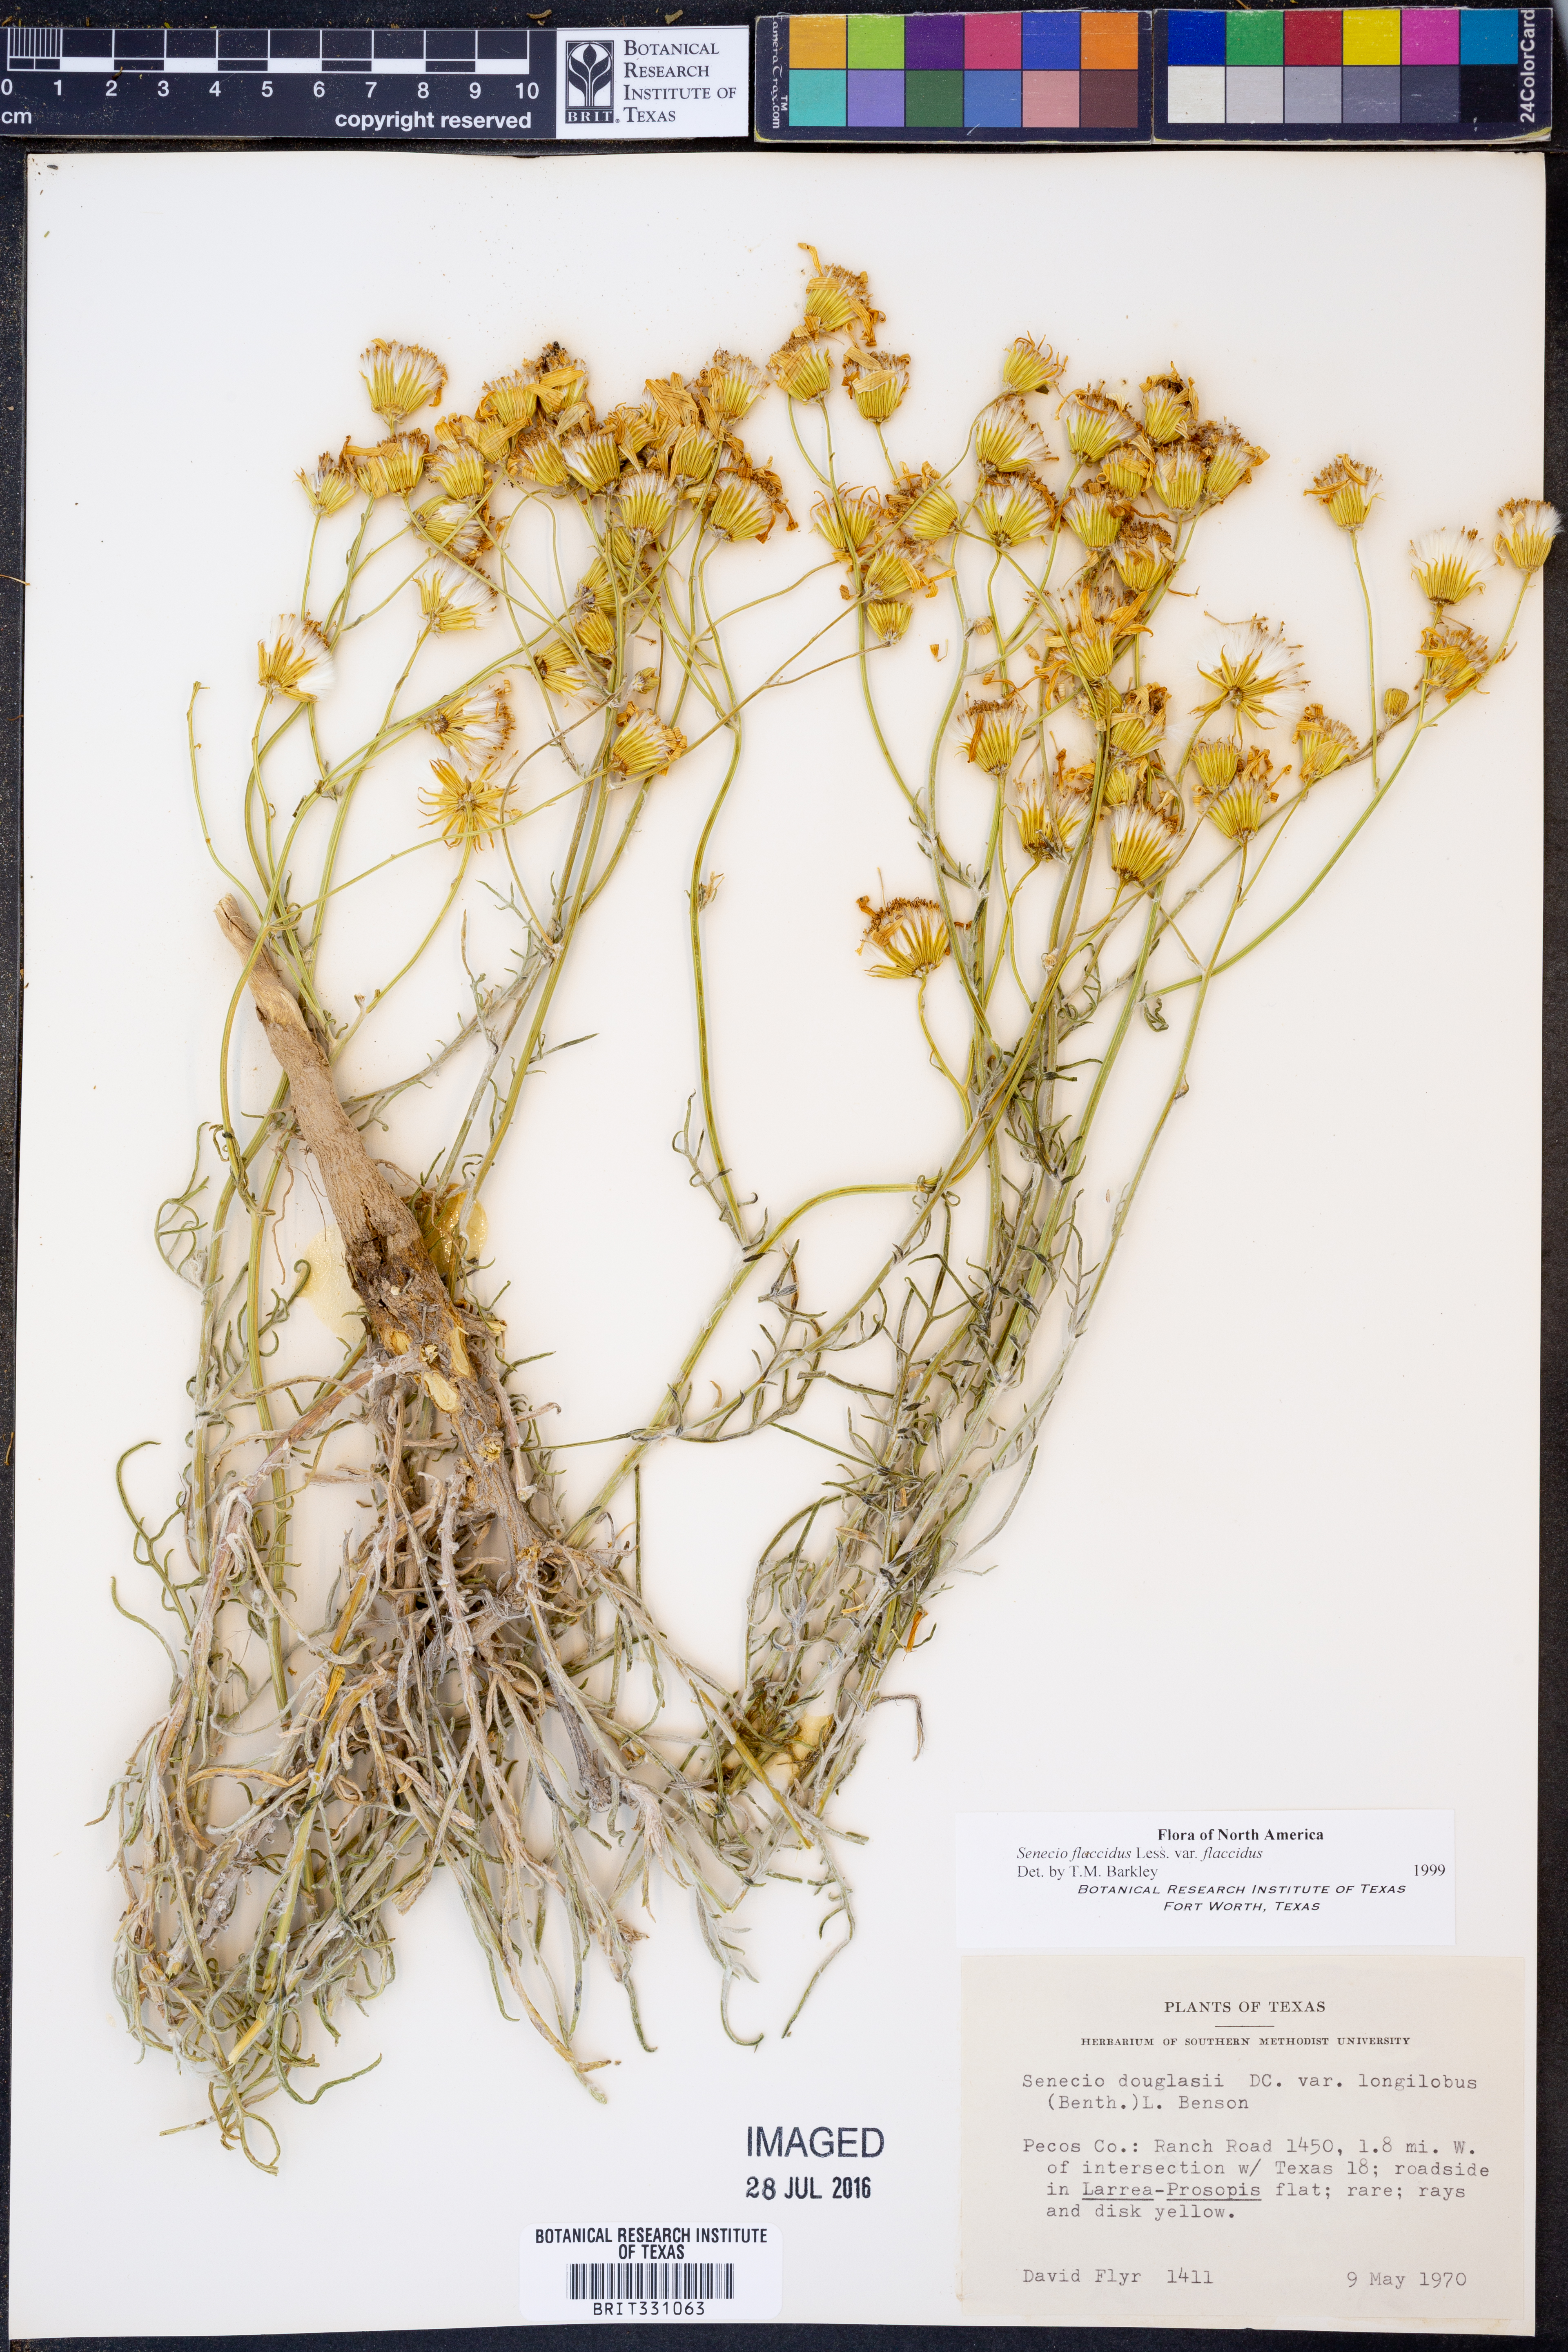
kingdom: Plantae
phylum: Tracheophyta
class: Magnoliopsida
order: Asterales
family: Asteraceae
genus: Senecio
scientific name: Senecio flaccidus
